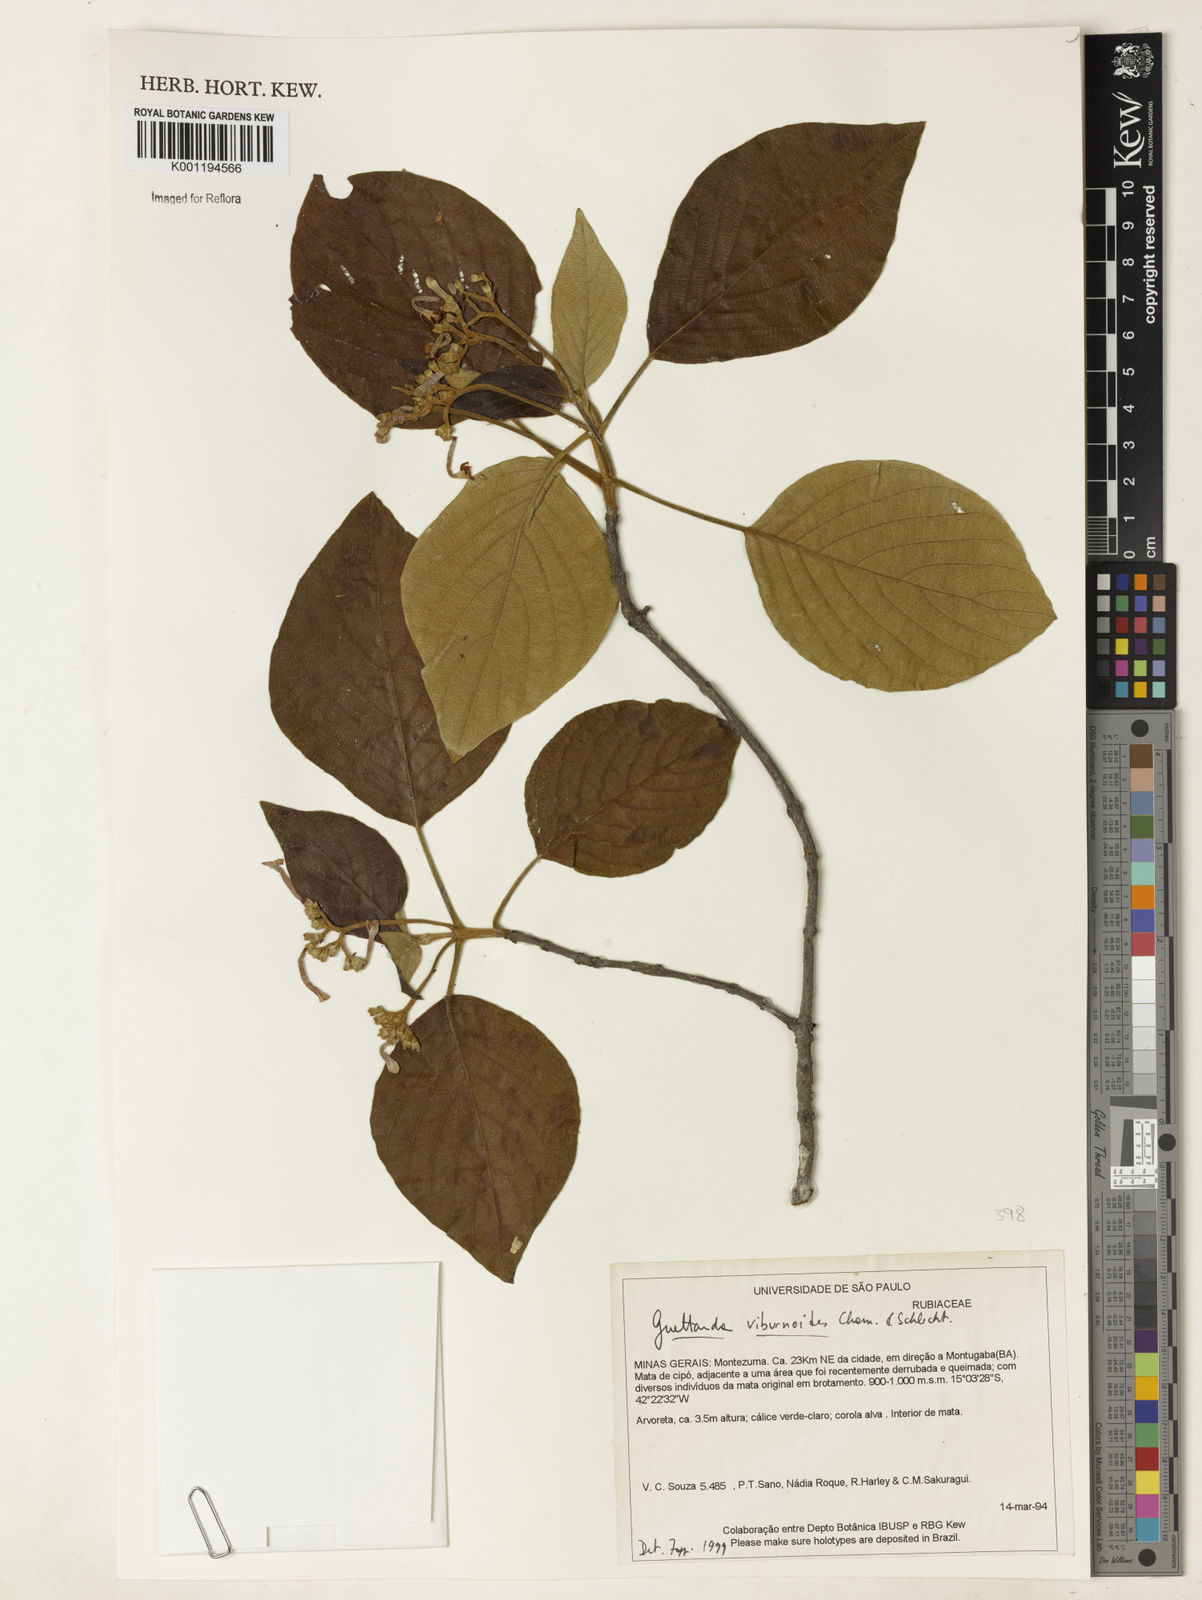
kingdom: Plantae
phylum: Tracheophyta
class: Magnoliopsida
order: Gentianales
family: Rubiaceae
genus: Guettarda
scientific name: Guettarda viburnoides
